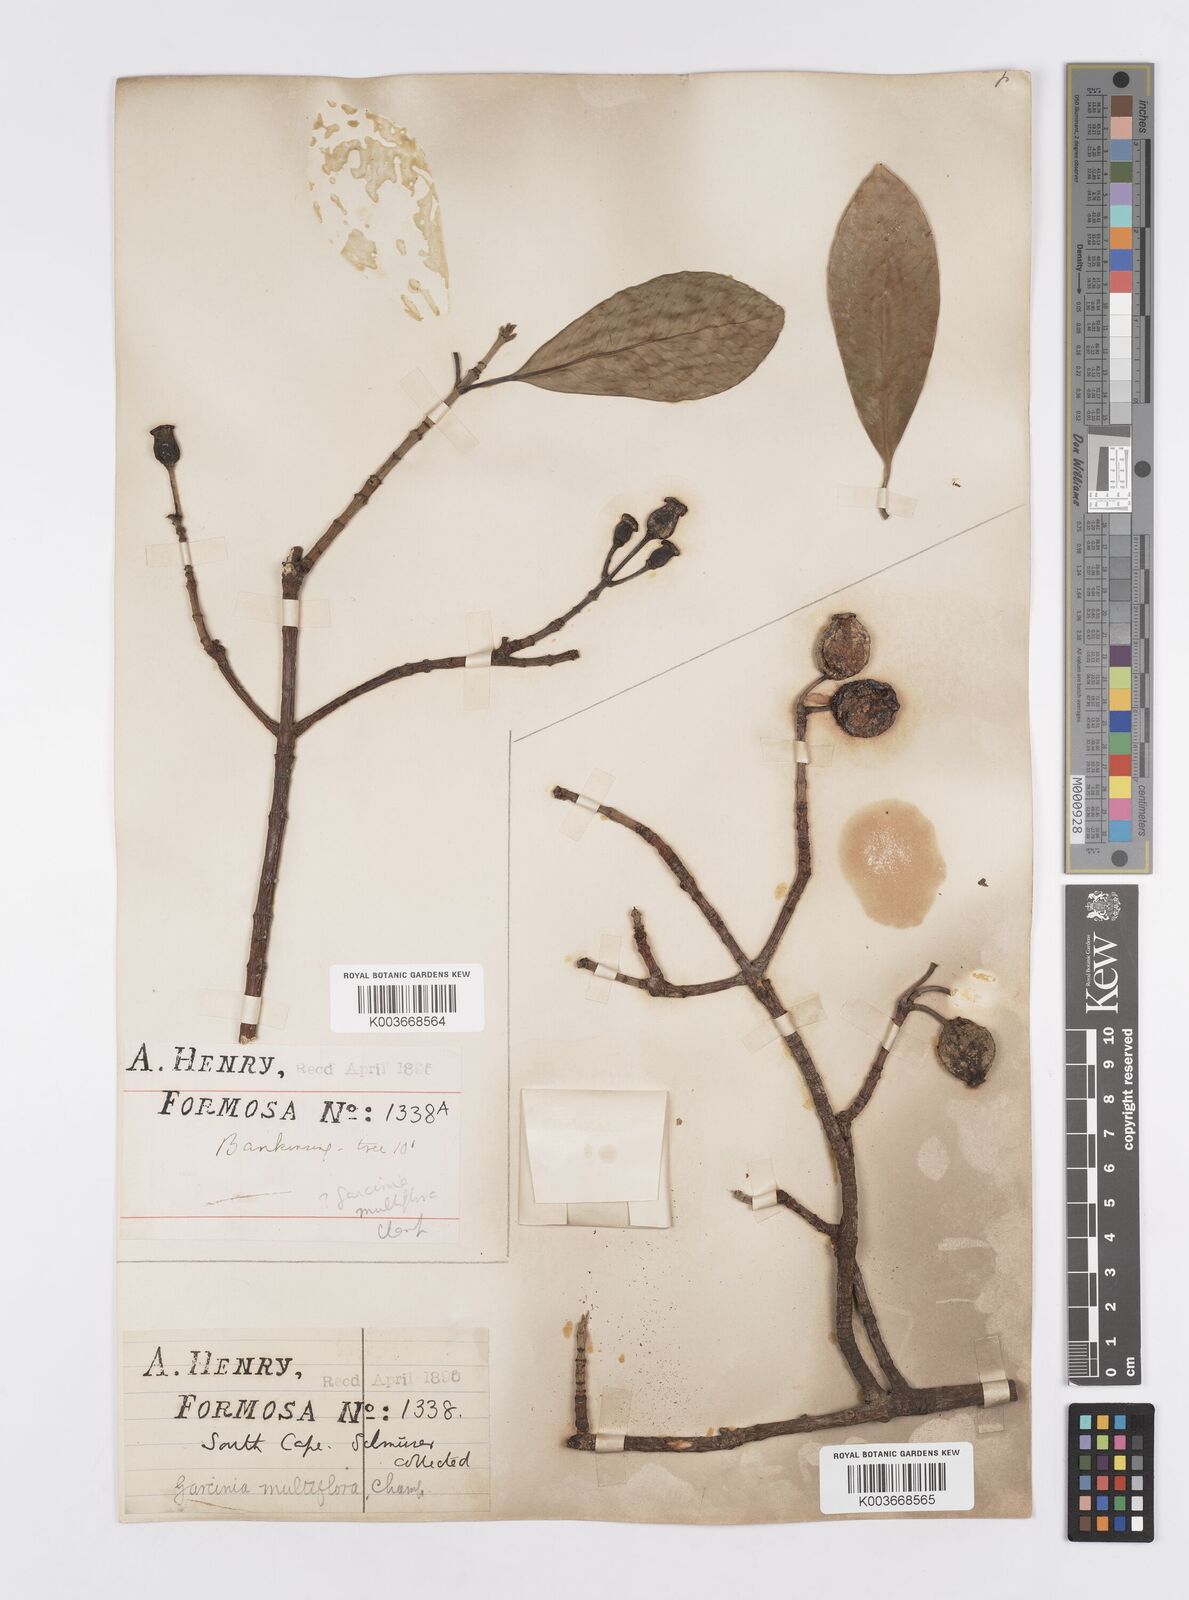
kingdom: Plantae
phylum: Tracheophyta
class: Magnoliopsida
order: Malpighiales
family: Clusiaceae
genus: Garcinia
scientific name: Garcinia multiflora
